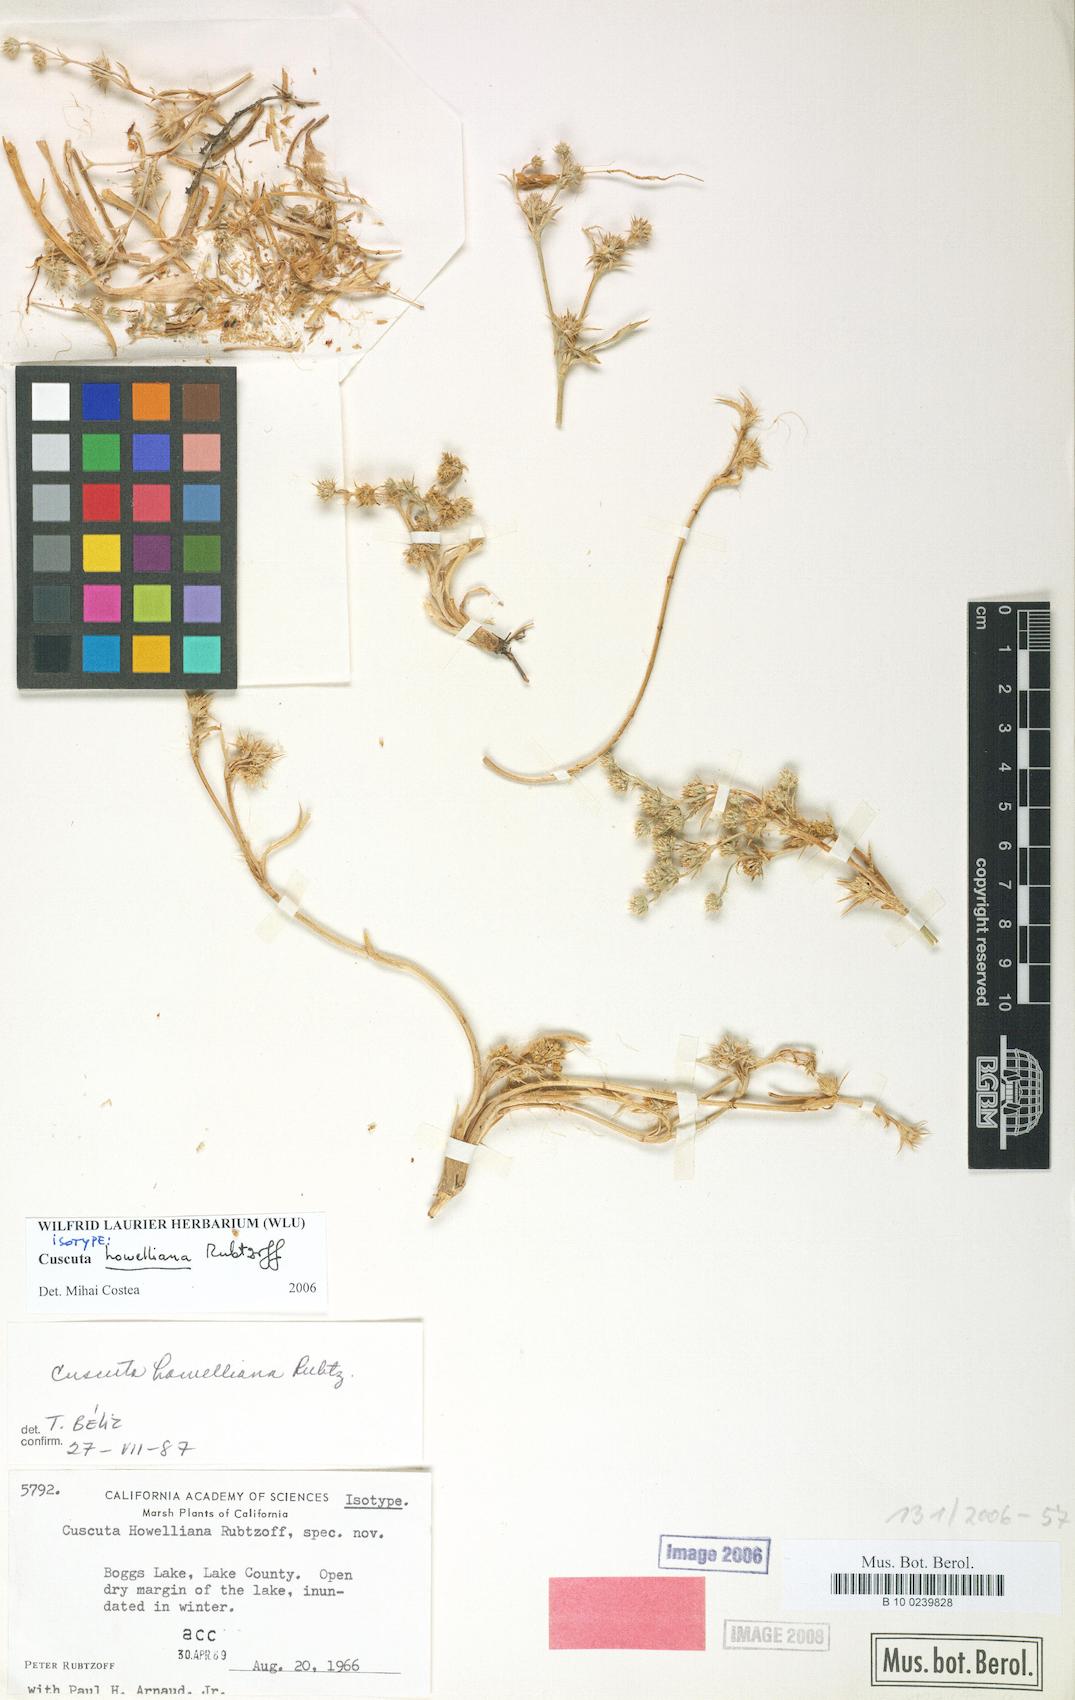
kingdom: Plantae
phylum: Tracheophyta
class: Magnoliopsida
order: Solanales
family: Convolvulaceae
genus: Cuscuta
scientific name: Cuscuta howelliana
